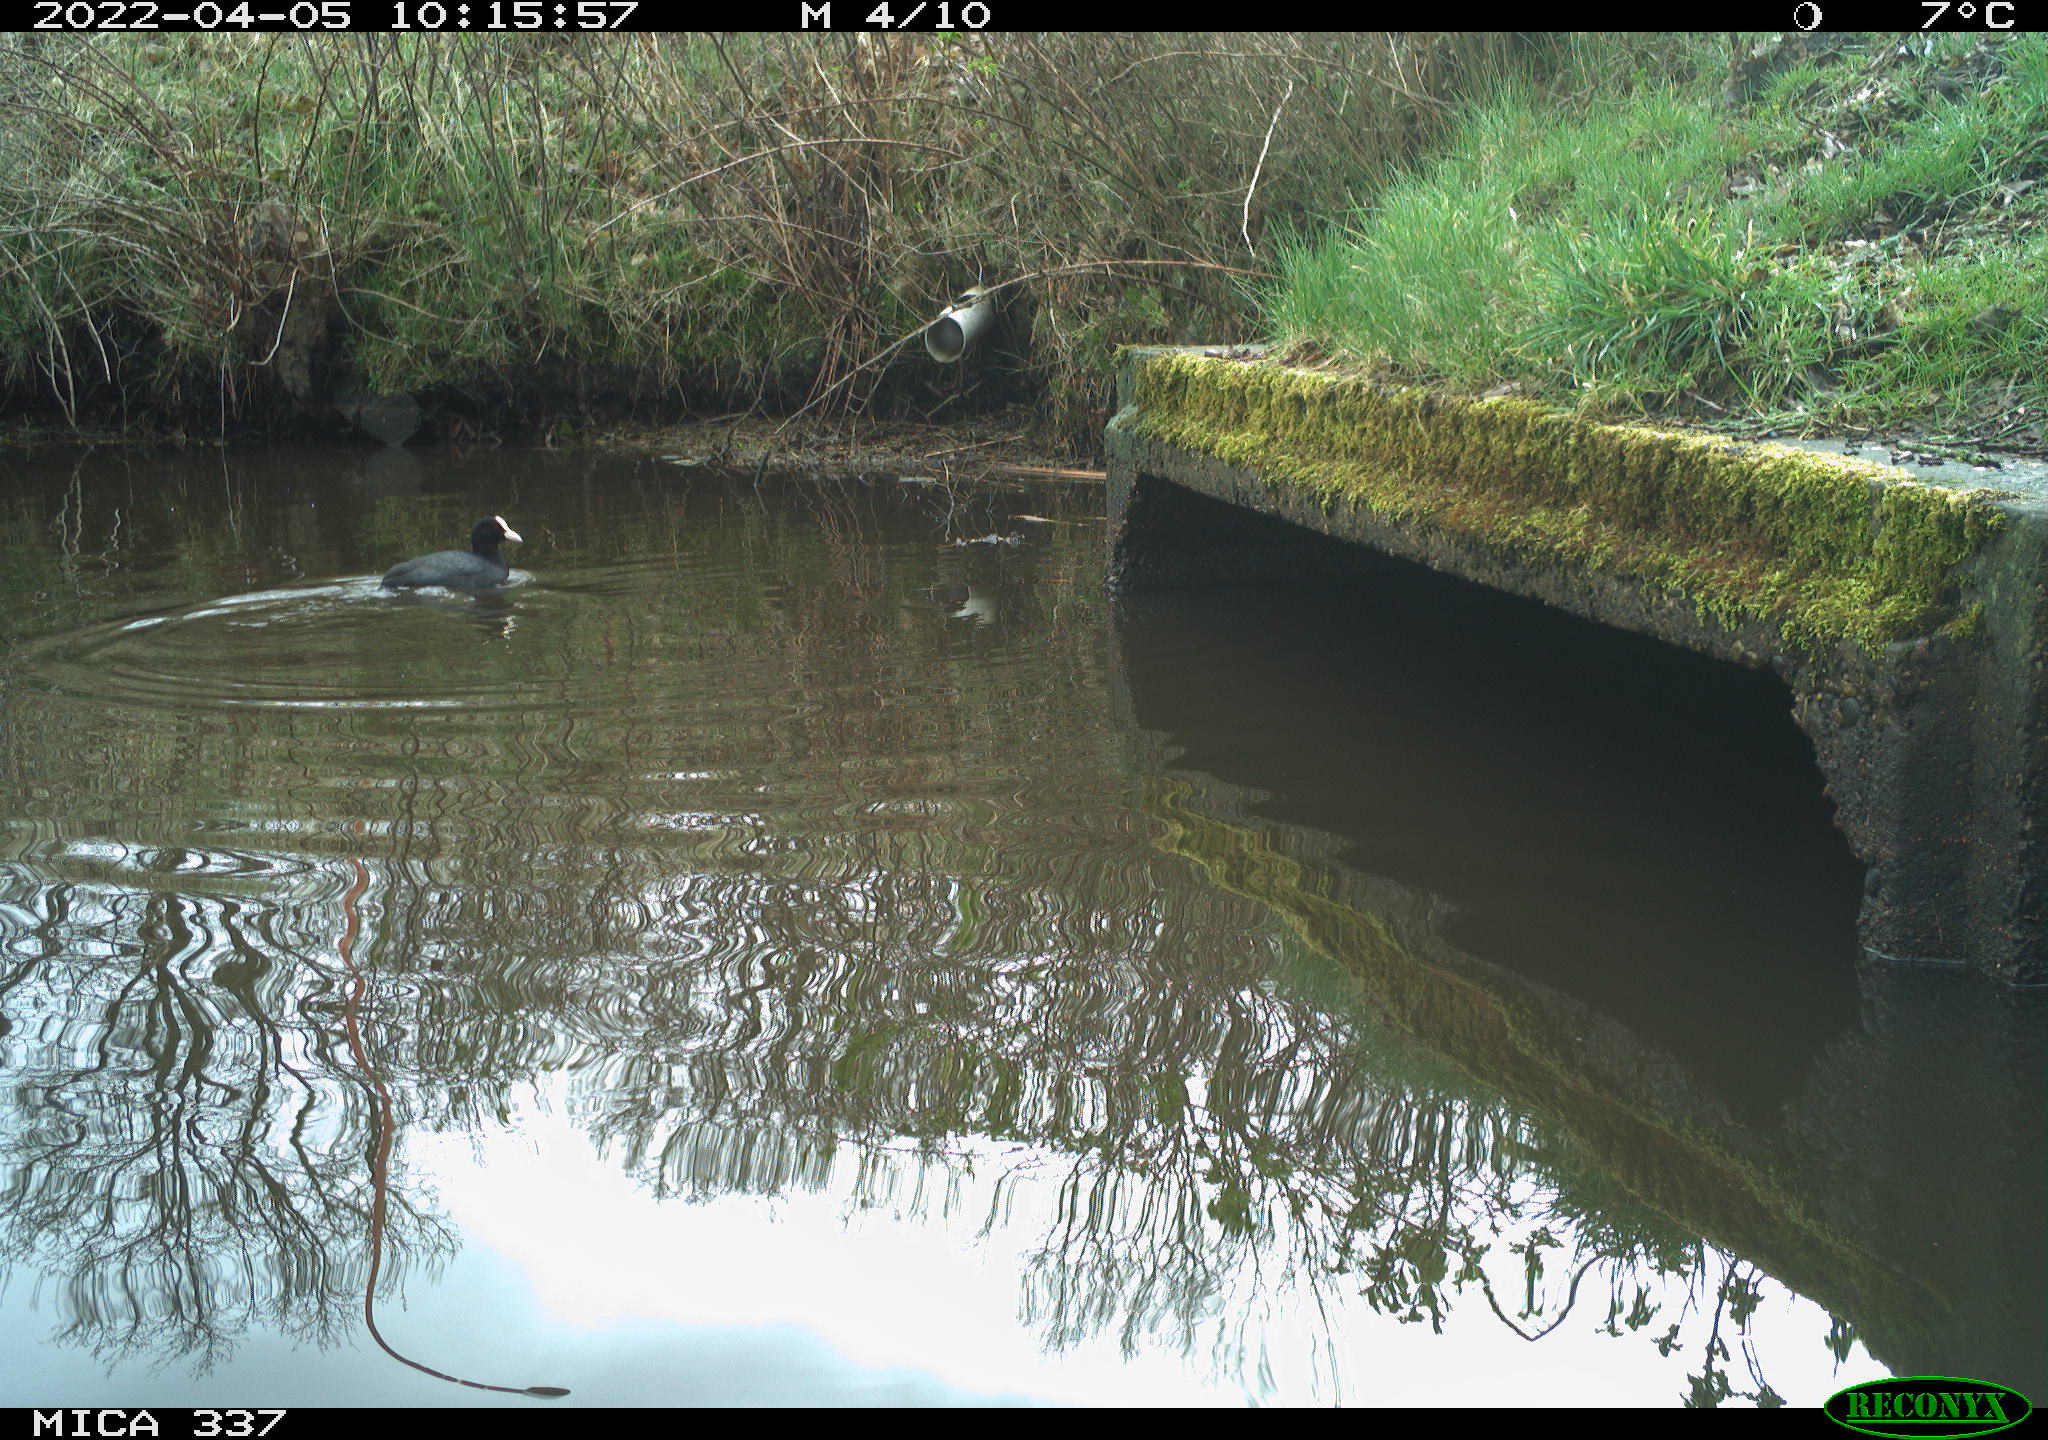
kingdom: Animalia
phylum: Chordata
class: Aves
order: Anseriformes
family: Anatidae
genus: Anas
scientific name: Anas platyrhynchos
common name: Mallard
